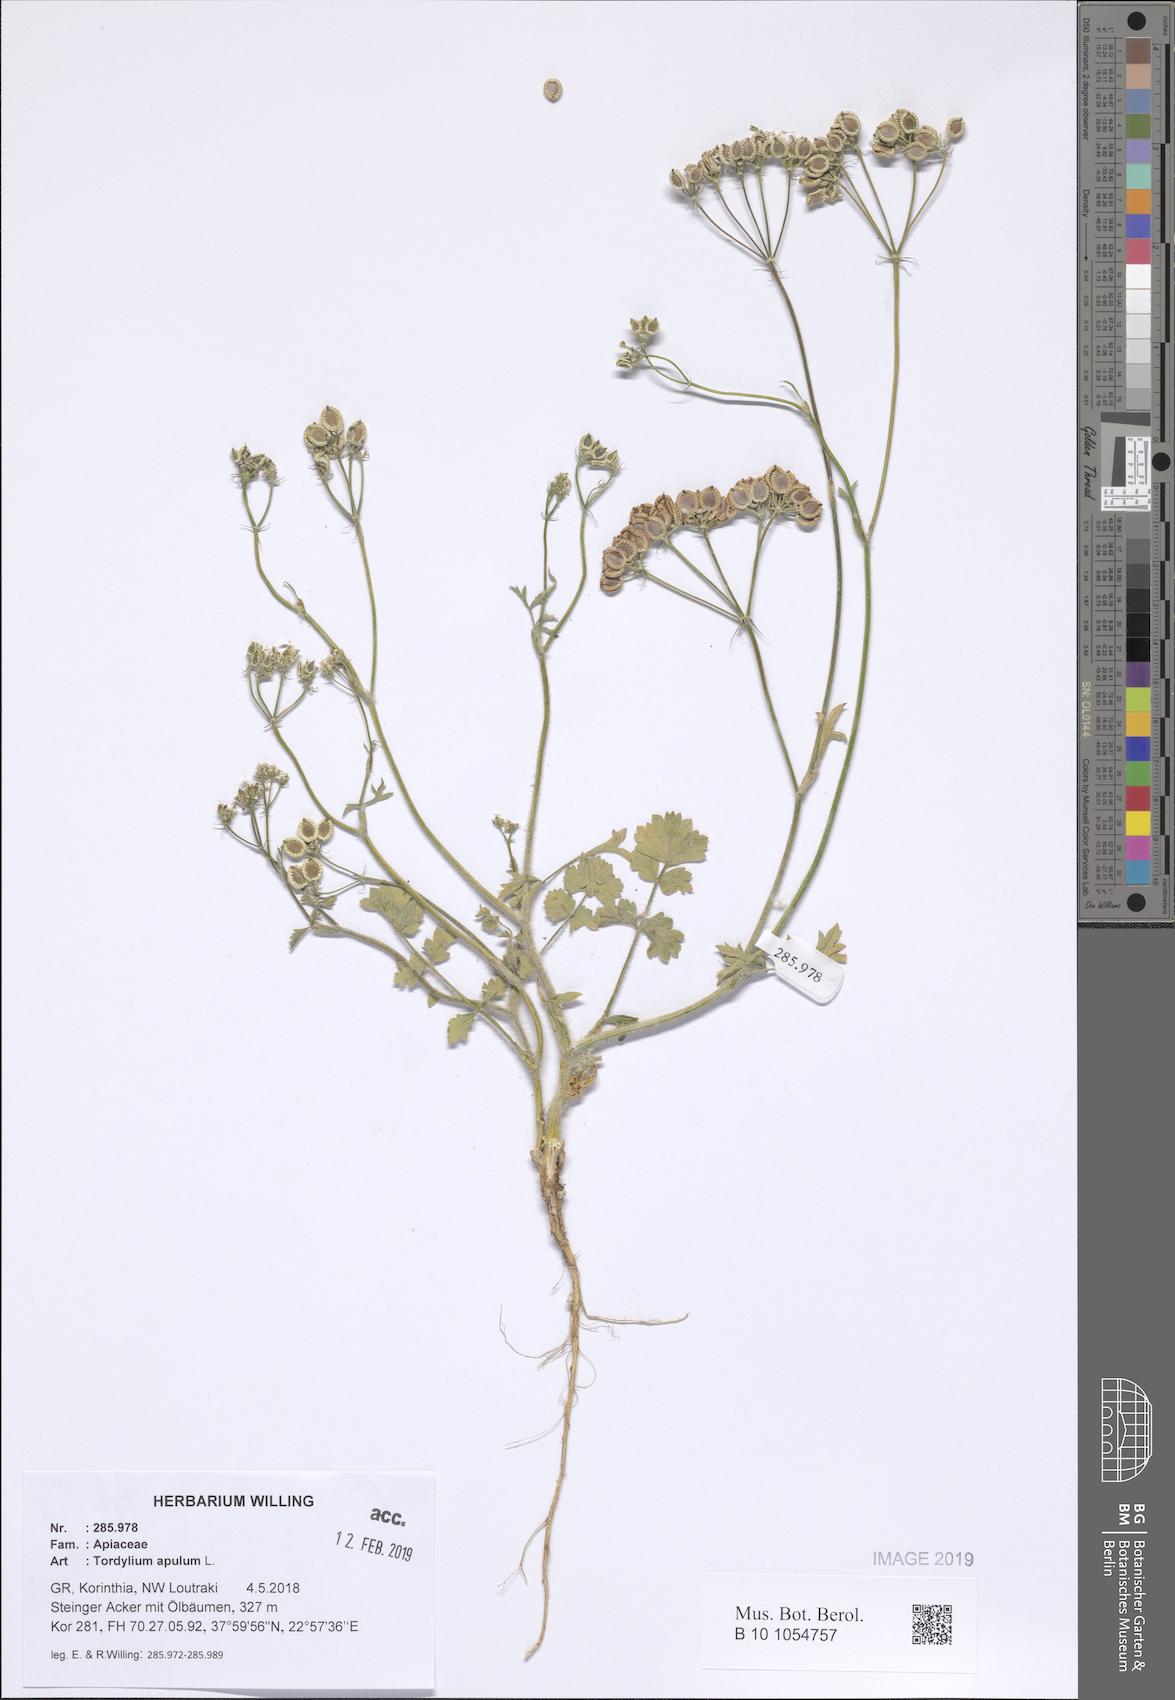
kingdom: Plantae
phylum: Tracheophyta
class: Magnoliopsida
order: Apiales
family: Apiaceae
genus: Tordylium
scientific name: Tordylium apulum
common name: Mediterranean hartwort
